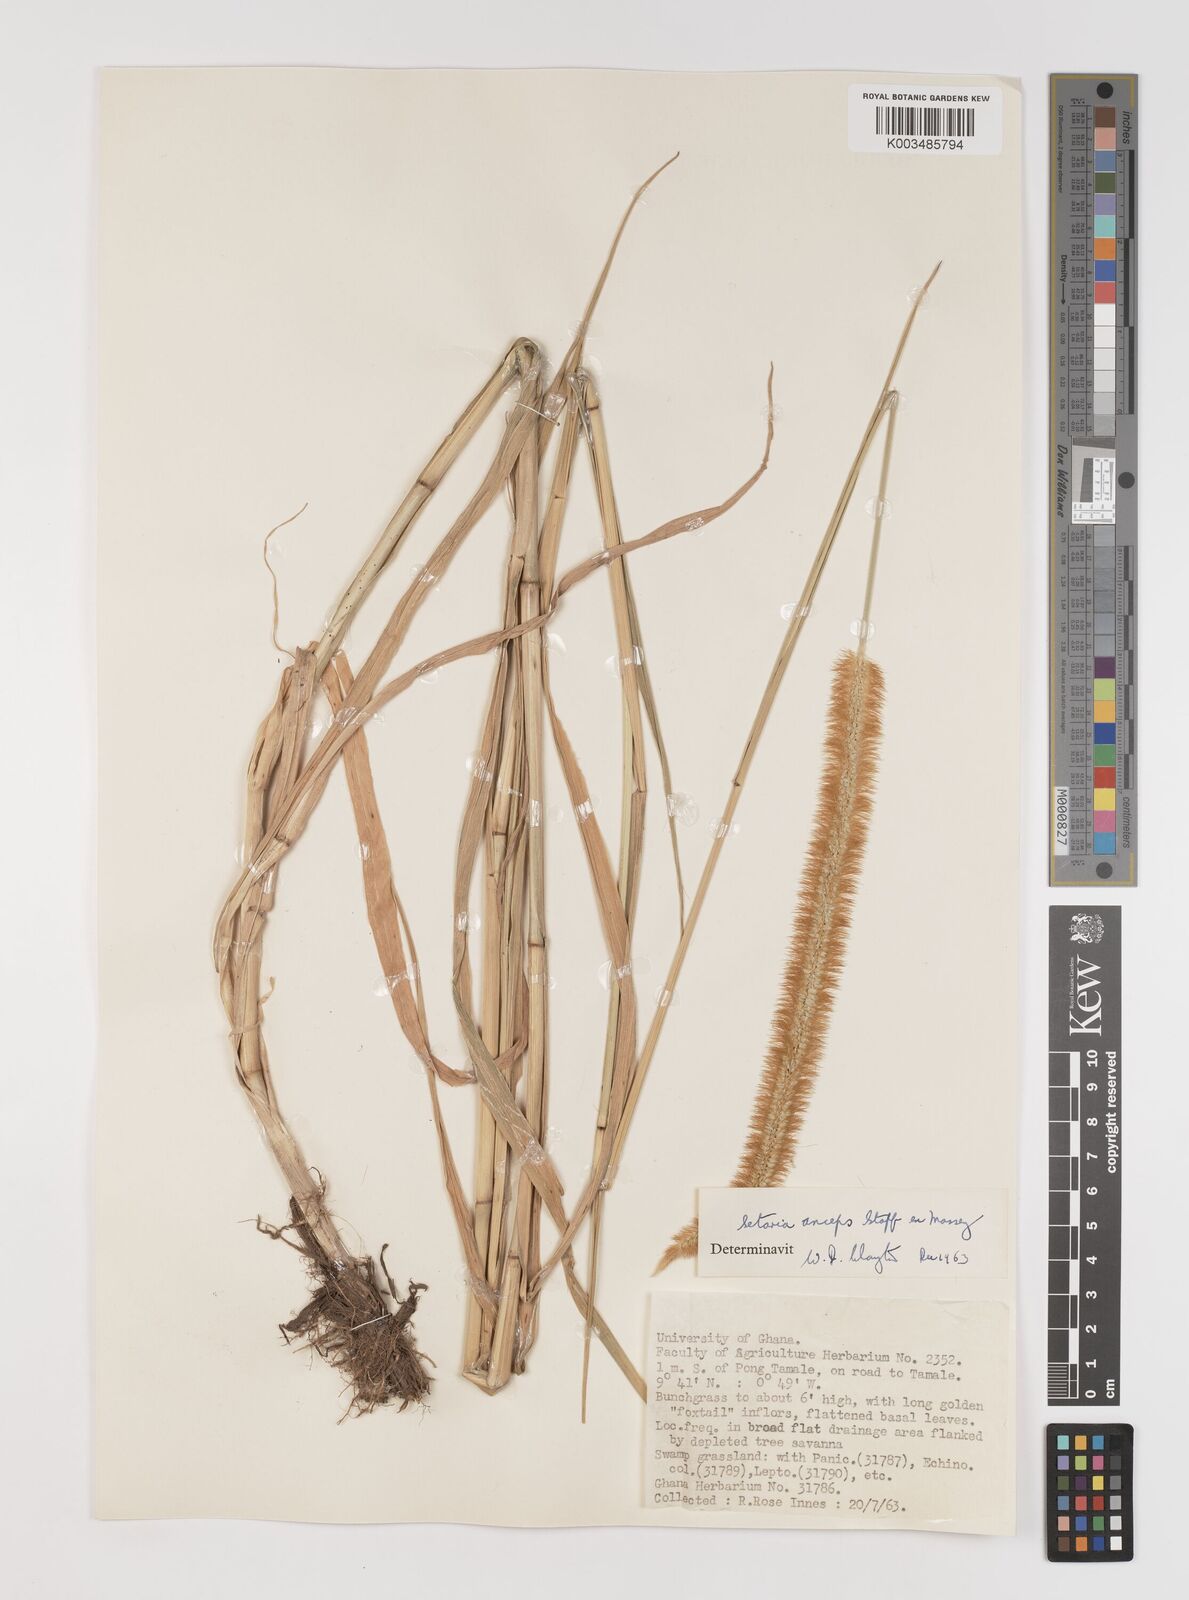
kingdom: Plantae
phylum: Tracheophyta
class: Liliopsida
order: Poales
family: Poaceae
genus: Setaria
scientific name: Setaria sphacelata
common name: African bristlegrass
